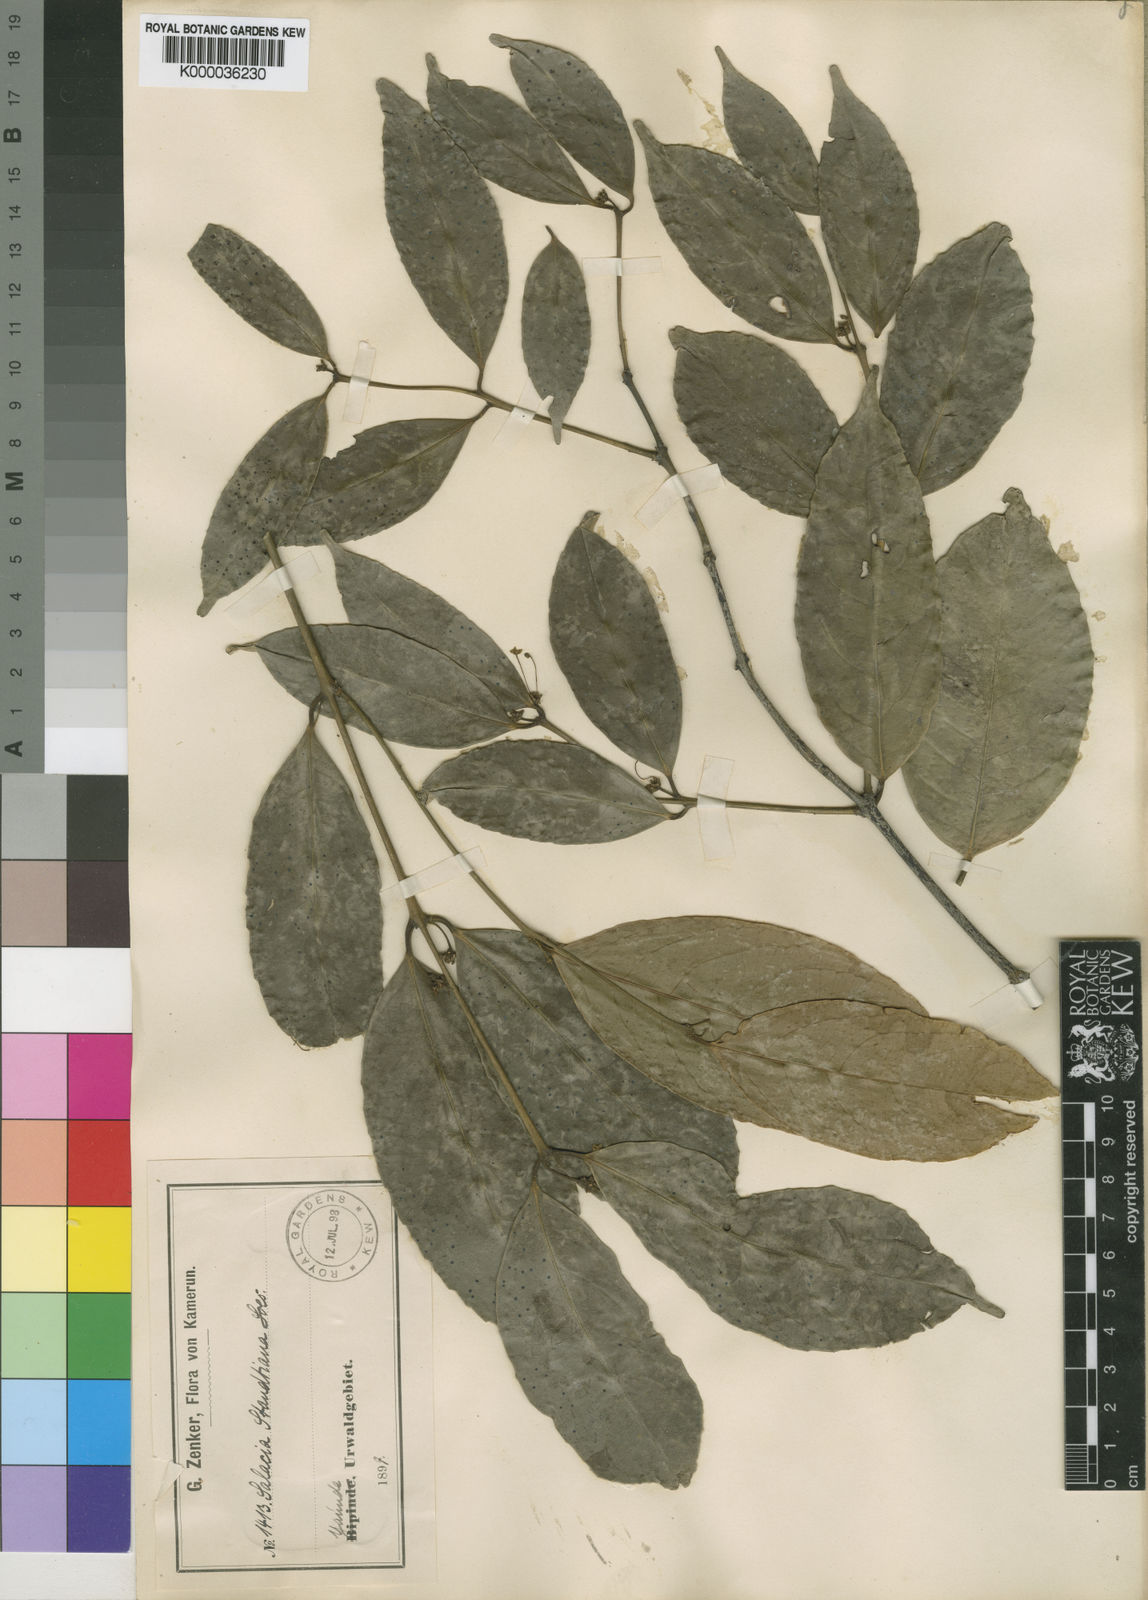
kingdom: Plantae
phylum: Tracheophyta
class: Magnoliopsida
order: Celastrales
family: Celastraceae
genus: Salacia
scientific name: Salacia staudtiana
